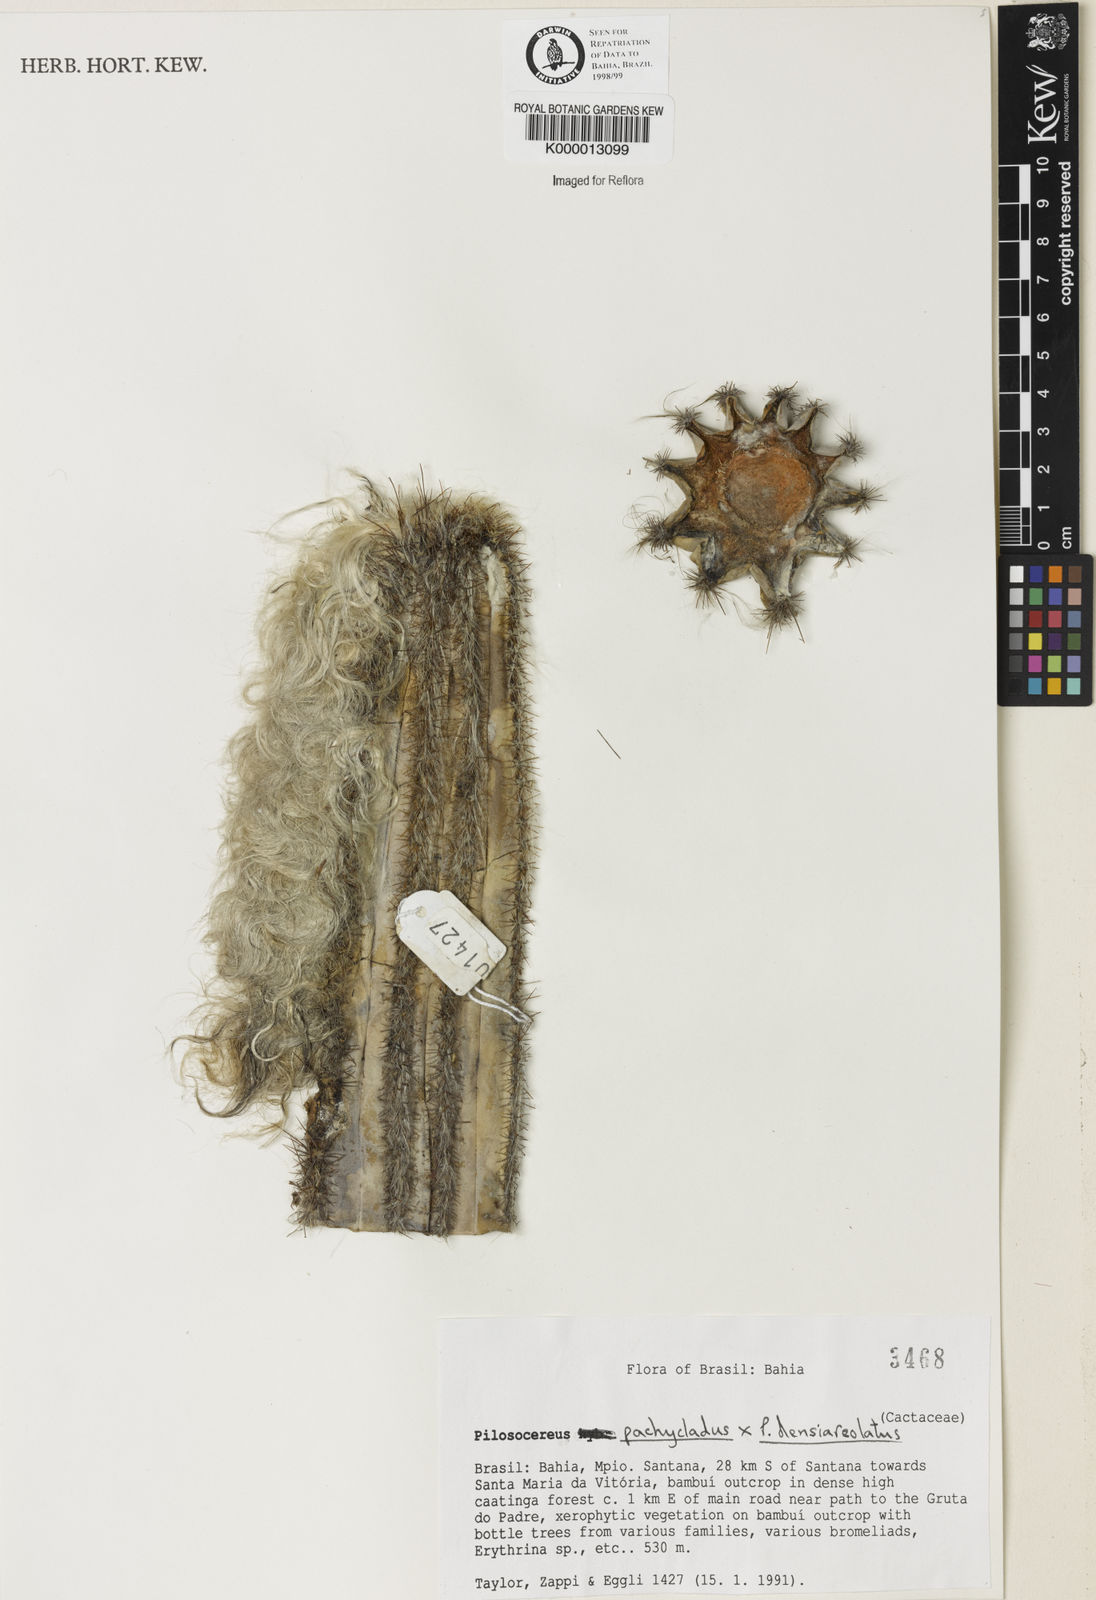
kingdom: Plantae
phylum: Tracheophyta
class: Magnoliopsida
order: Caryophyllales
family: Cactaceae
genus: Pilosocereus
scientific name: Pilosocereus pachycladus
